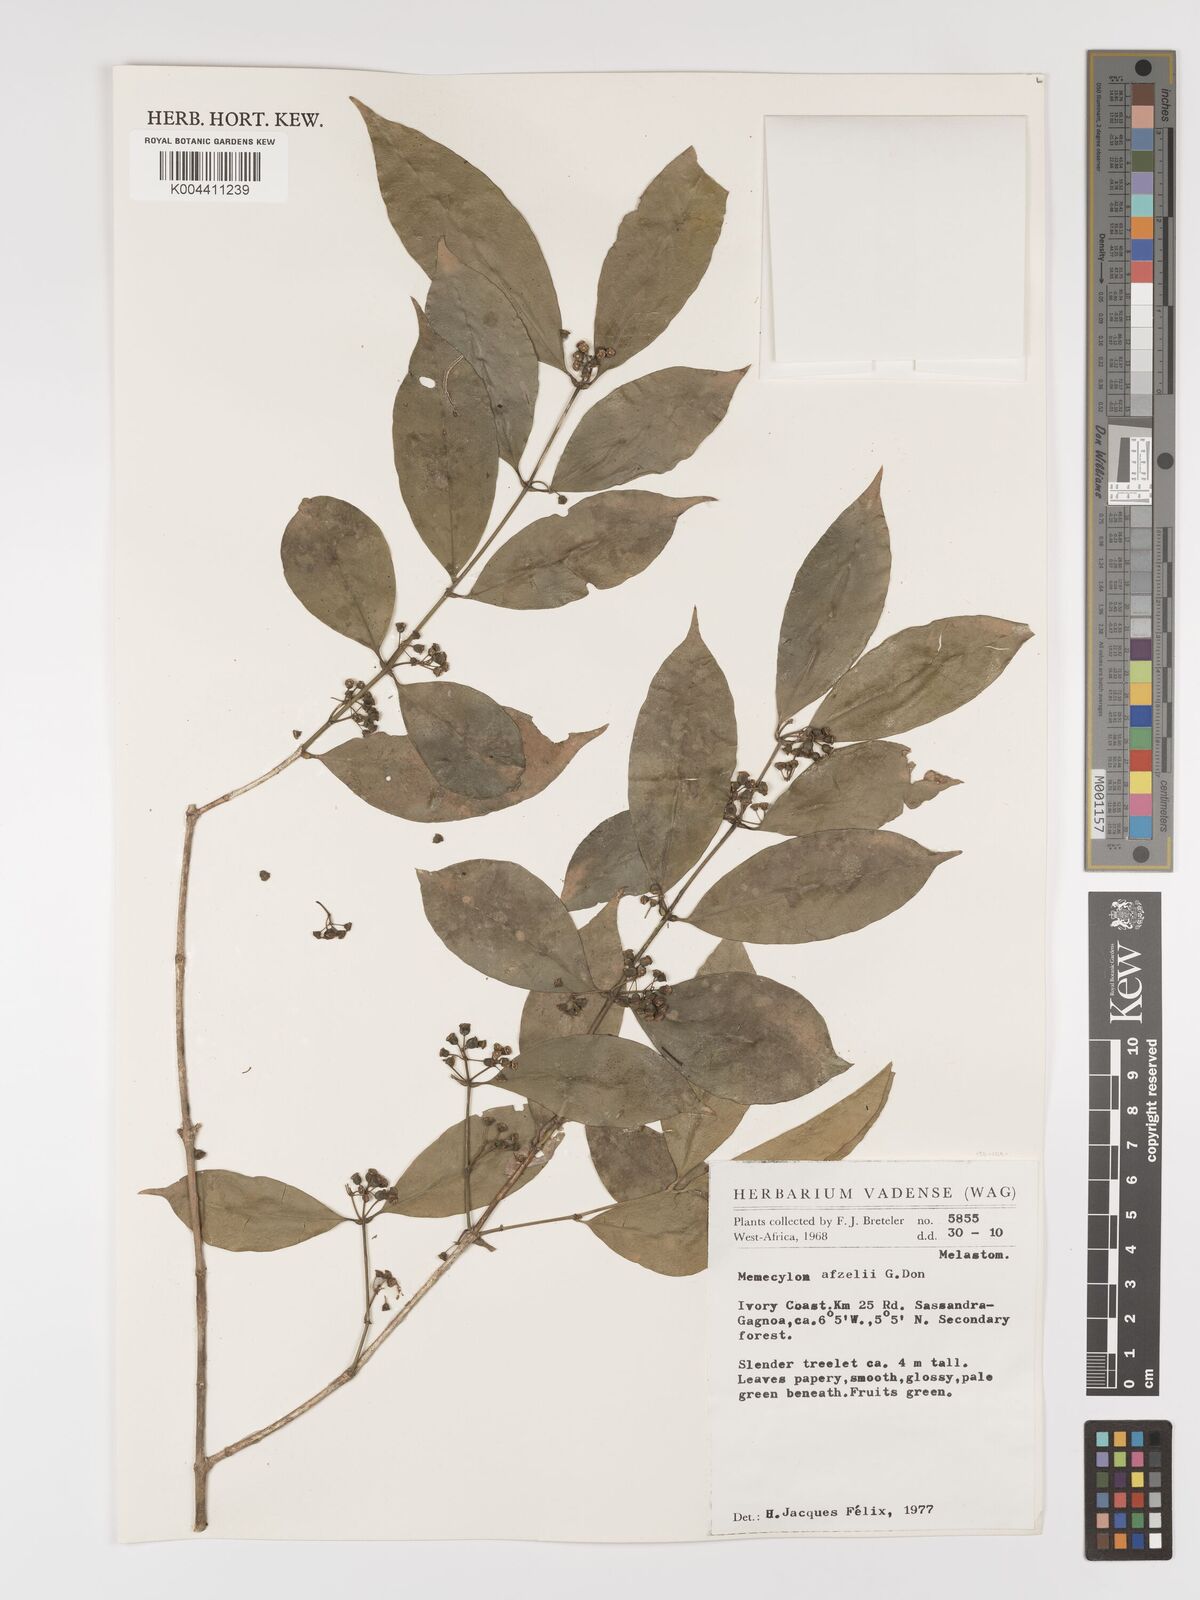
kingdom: Plantae
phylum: Tracheophyta
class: Magnoliopsida
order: Myrtales
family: Melastomataceae
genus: Memecylon
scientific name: Memecylon afzelii
